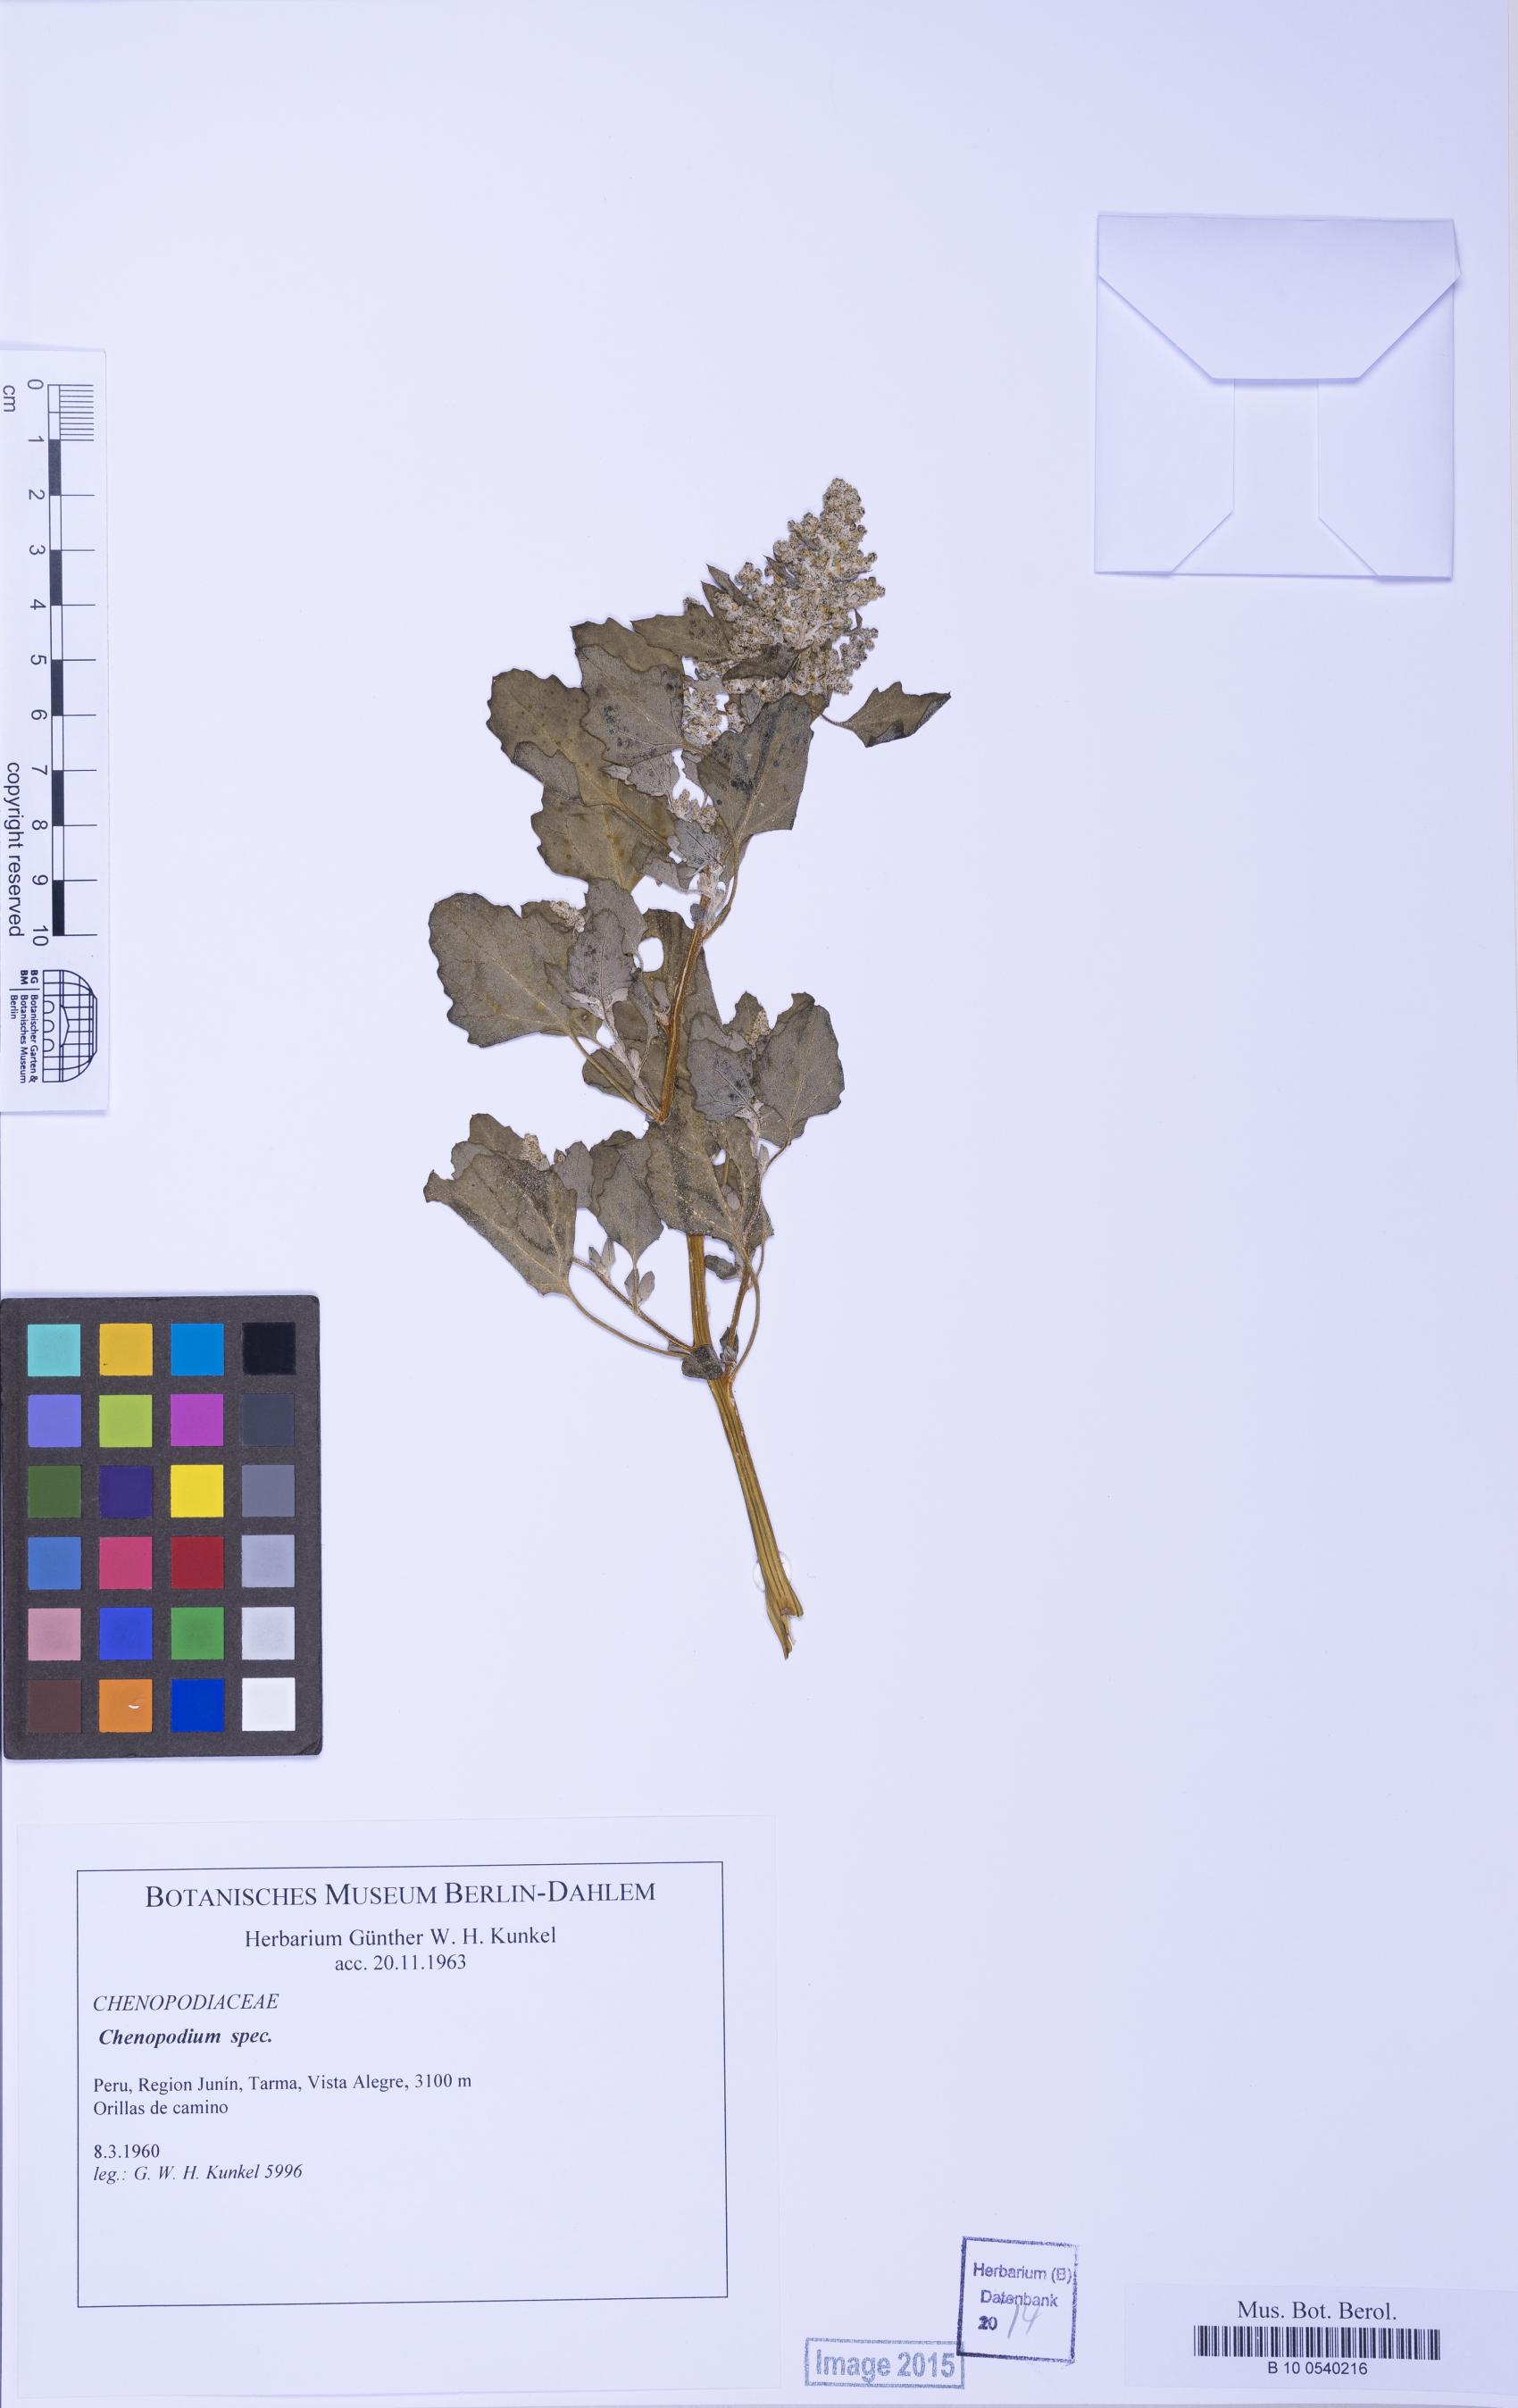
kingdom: Plantae
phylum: Tracheophyta
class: Magnoliopsida
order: Caryophyllales
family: Amaranthaceae
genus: Chenopodium
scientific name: Chenopodium
